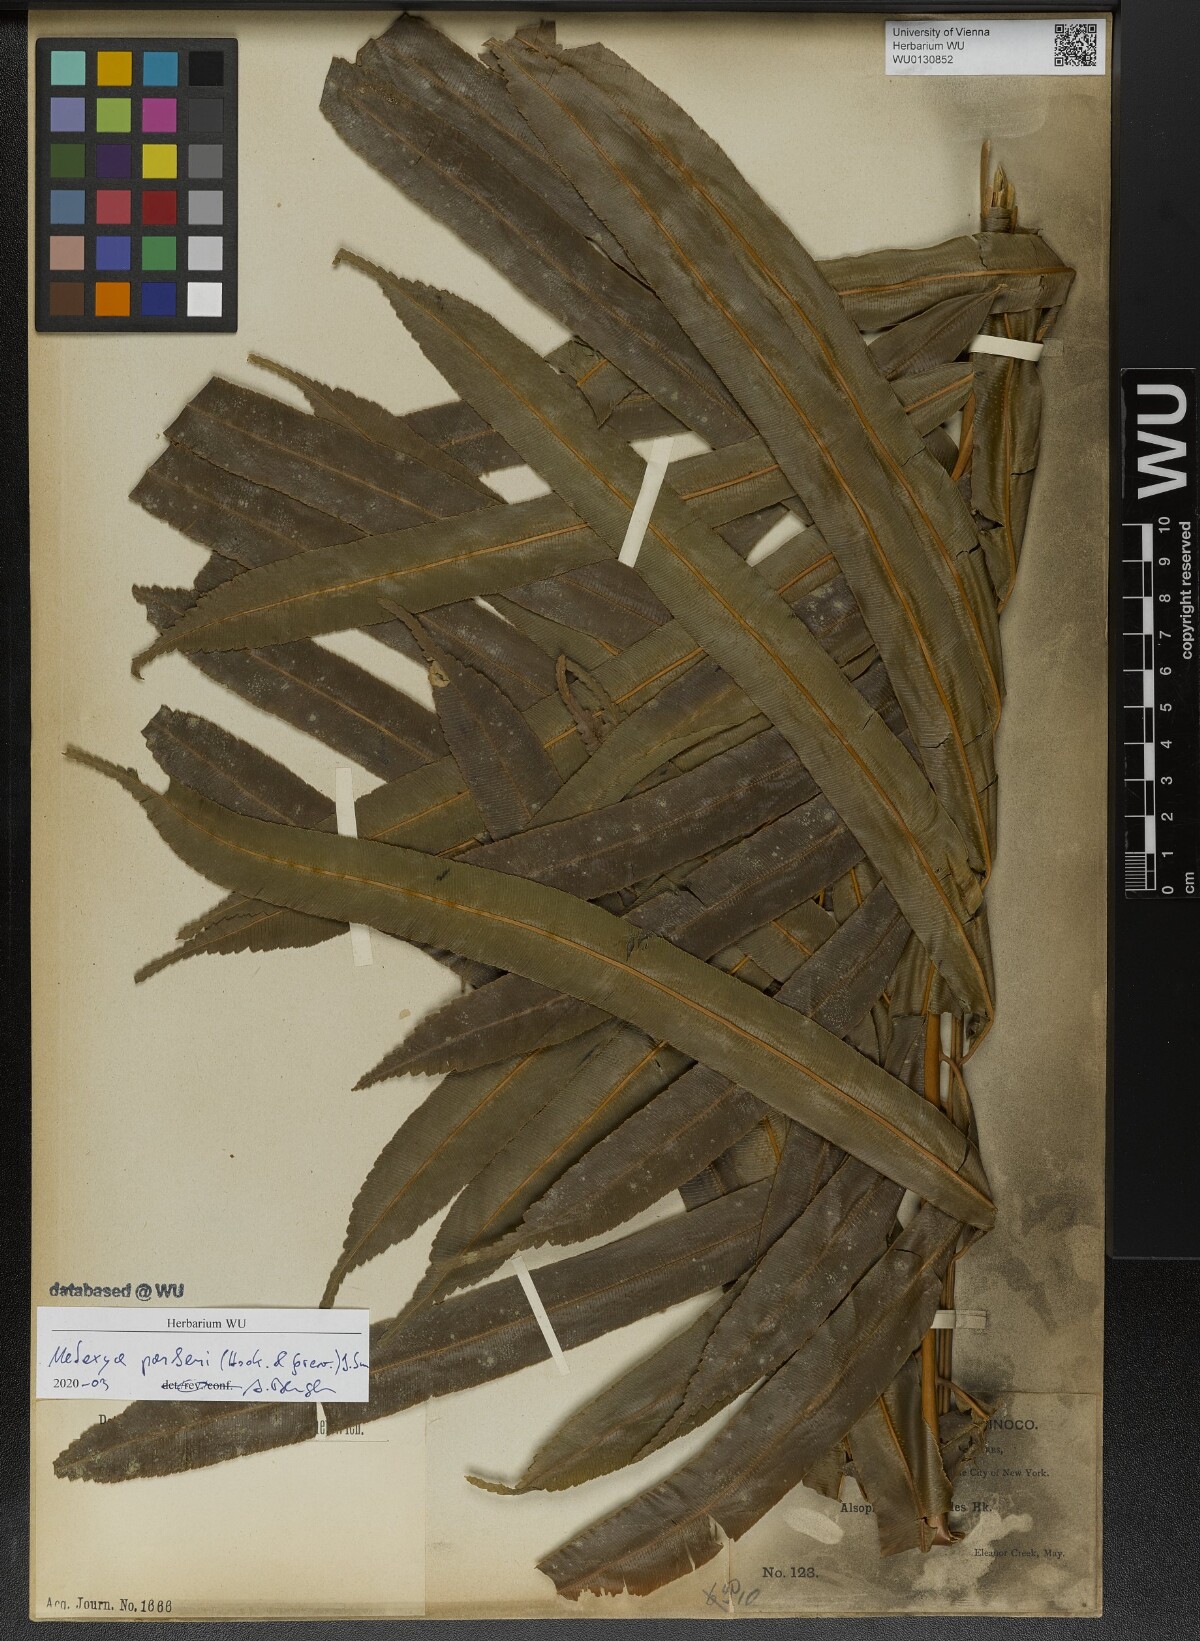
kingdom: Plantae
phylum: Tracheophyta
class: Polypodiopsida
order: Cyatheales
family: Metaxyaceae
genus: Metaxya
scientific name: Metaxya parkeri
